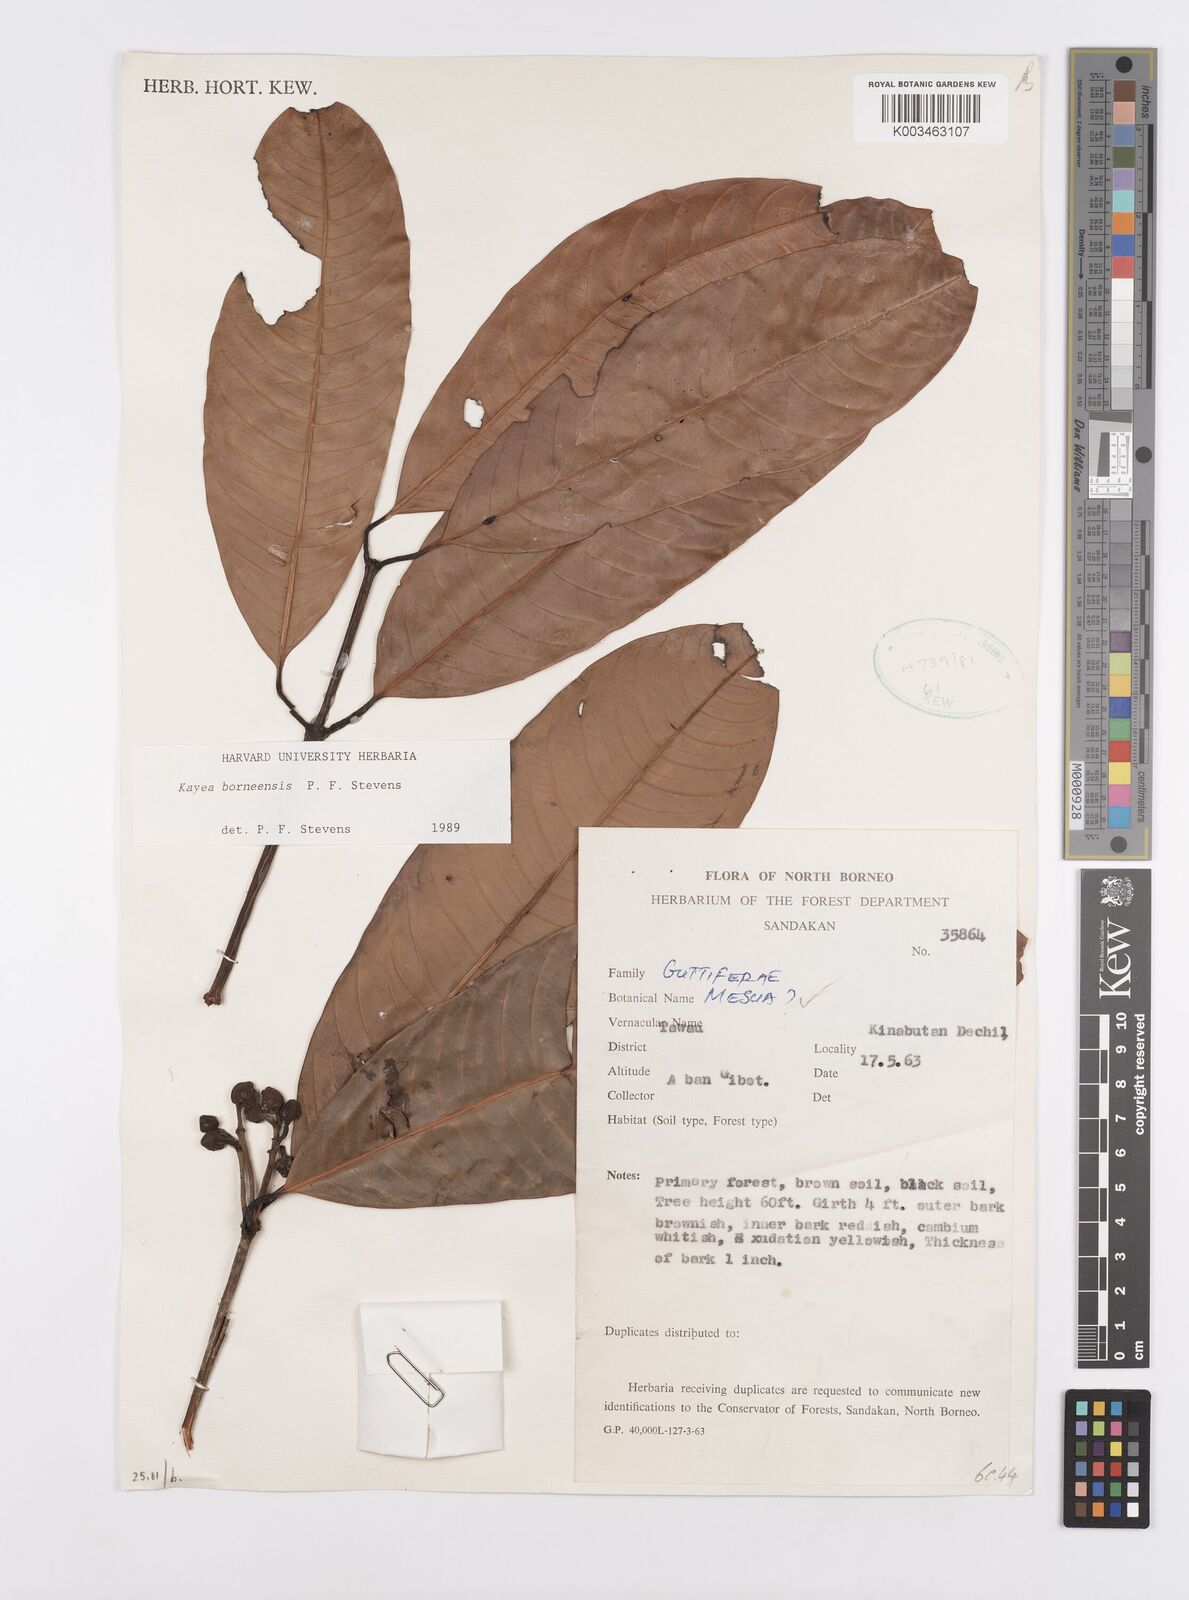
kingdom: Plantae
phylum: Tracheophyta
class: Magnoliopsida
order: Malpighiales
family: Calophyllaceae
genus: Kayea
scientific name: Kayea borneensis
